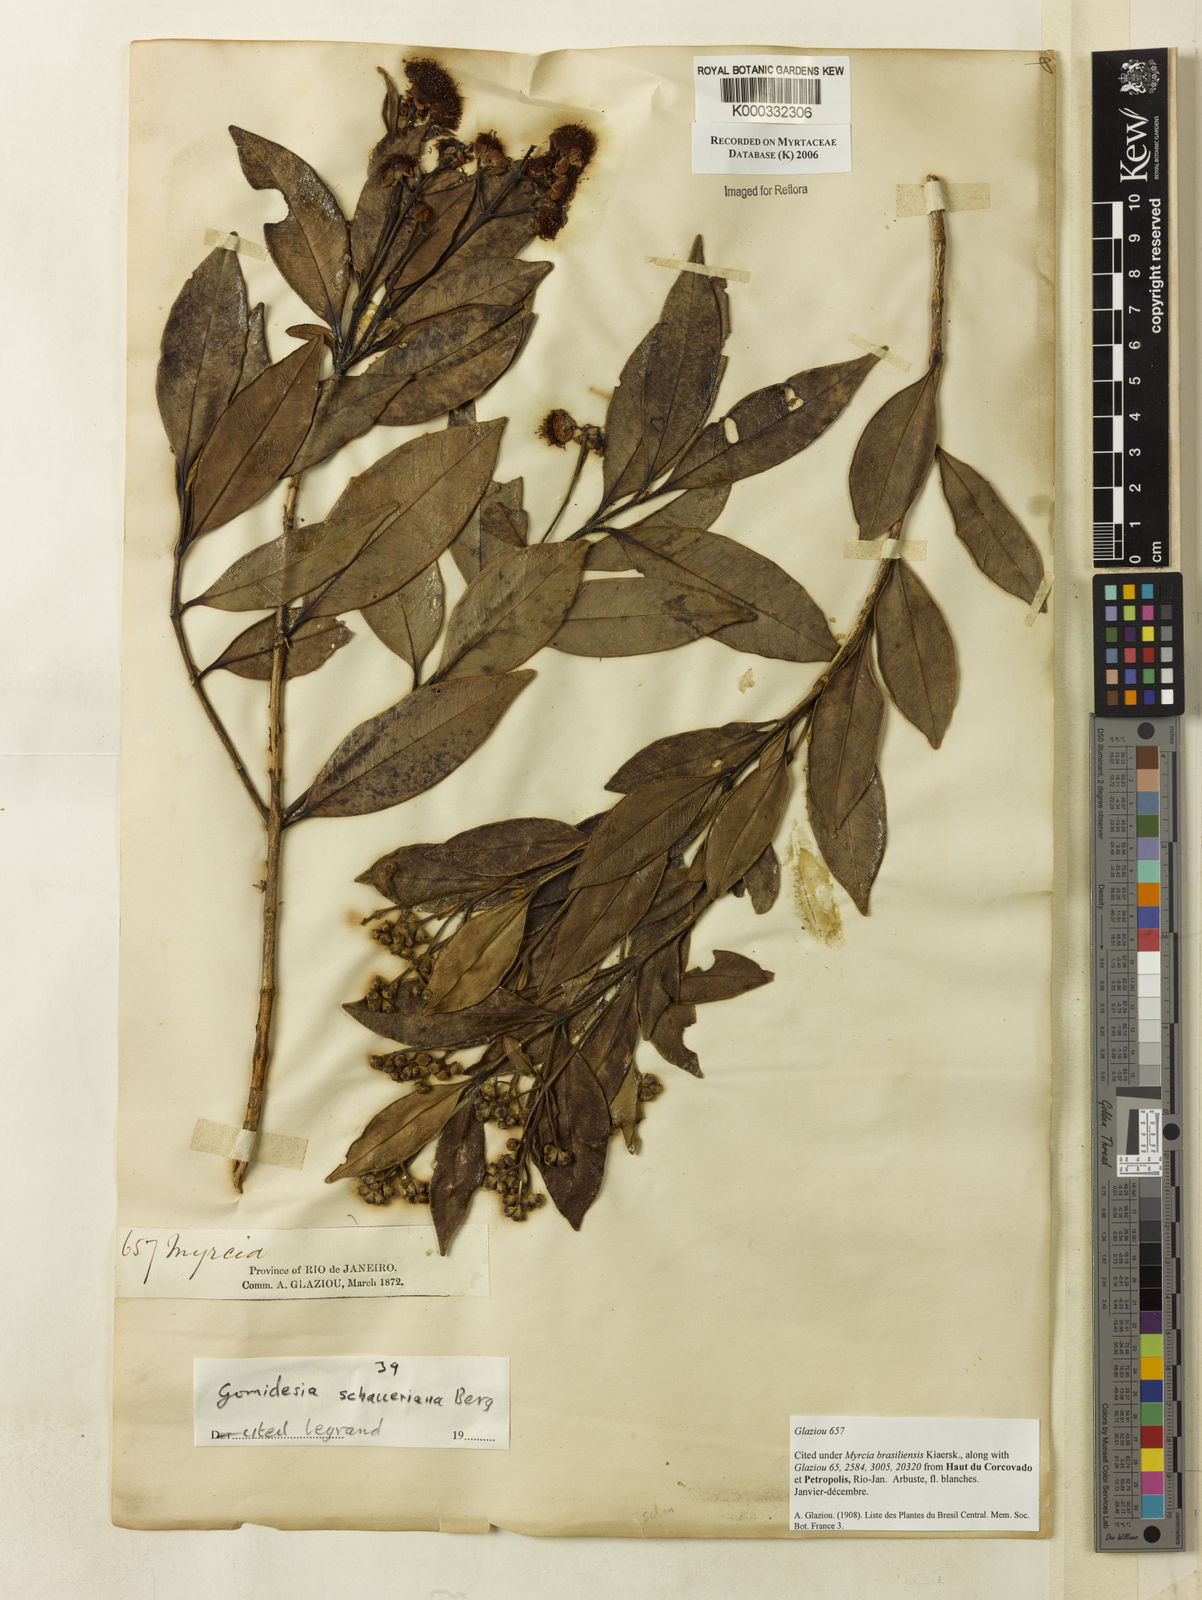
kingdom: Plantae
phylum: Tracheophyta
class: Magnoliopsida
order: Myrtales
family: Myrtaceae
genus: Myrcia
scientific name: Myrcia freyreissiana
